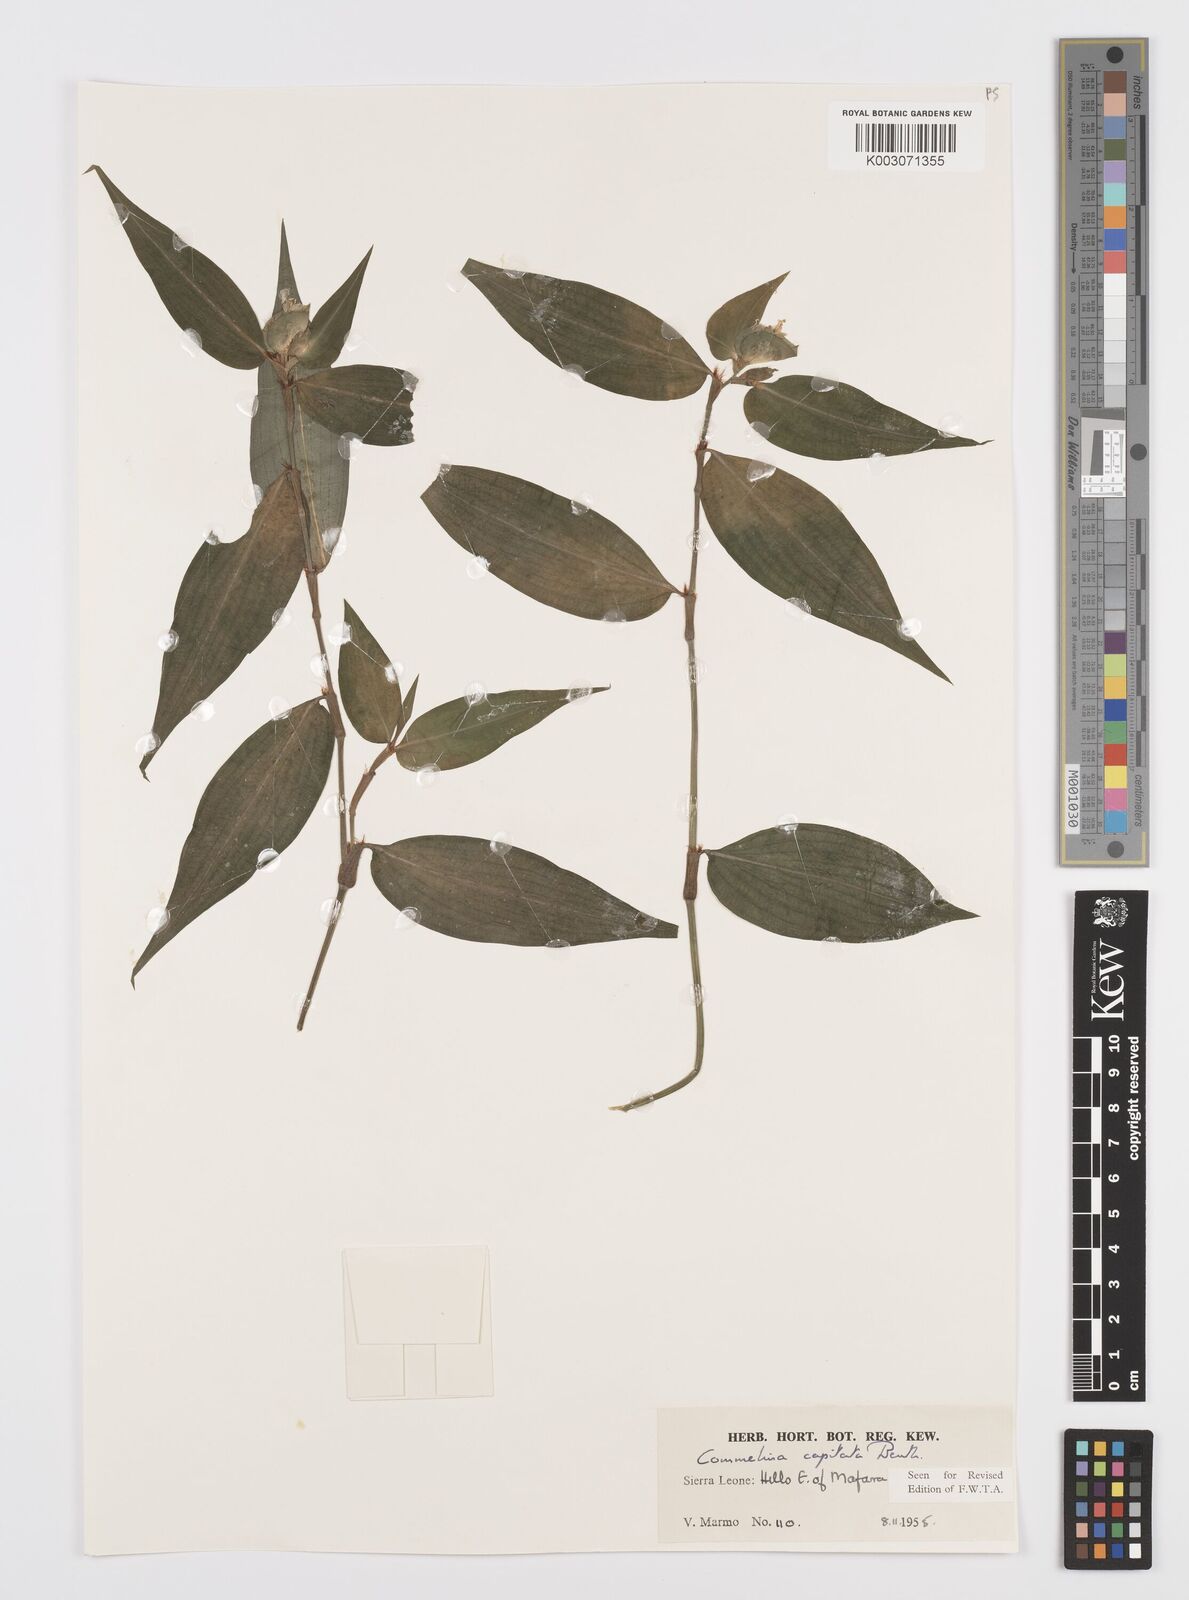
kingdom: Plantae
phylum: Tracheophyta
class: Liliopsida
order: Commelinales
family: Commelinaceae
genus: Commelina
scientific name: Commelina capitata
